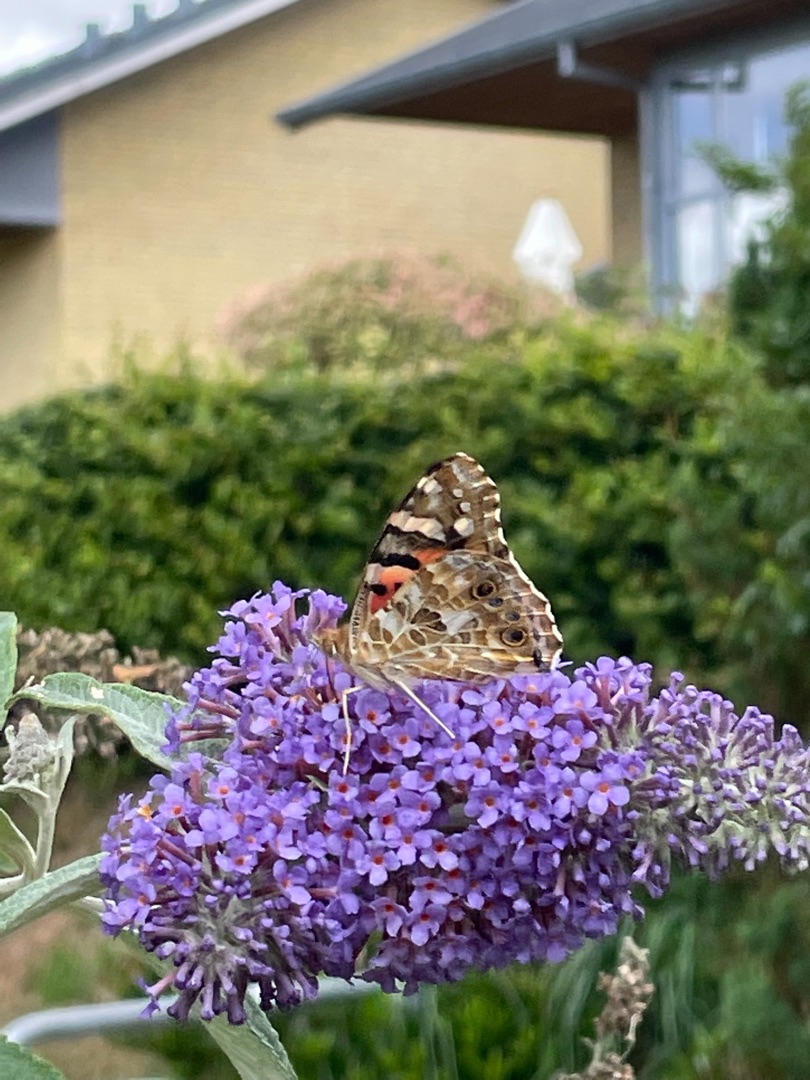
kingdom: Animalia
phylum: Arthropoda
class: Insecta
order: Lepidoptera
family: Nymphalidae
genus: Vanessa
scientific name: Vanessa cardui
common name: Tidselsommerfugl
